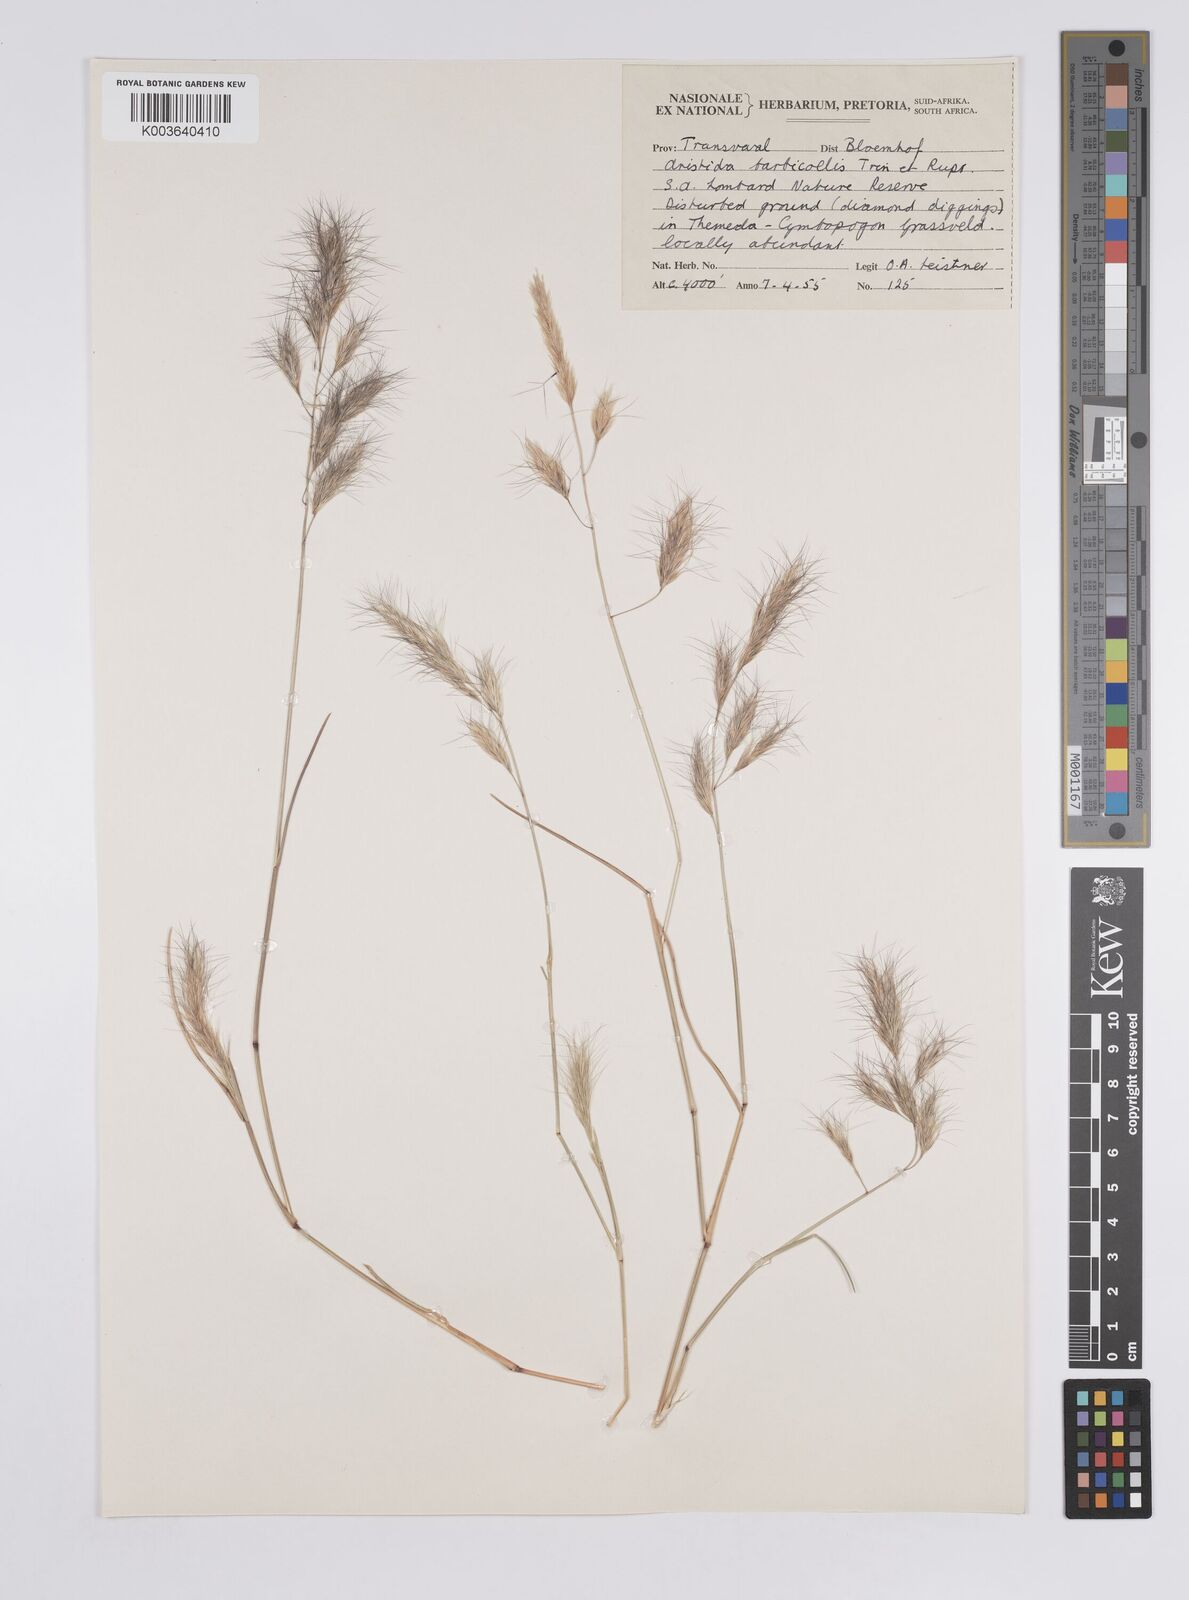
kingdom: Plantae
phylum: Tracheophyta
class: Liliopsida
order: Poales
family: Poaceae
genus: Aristida
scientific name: Aristida barbicollis
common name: Spreading prickle grass
